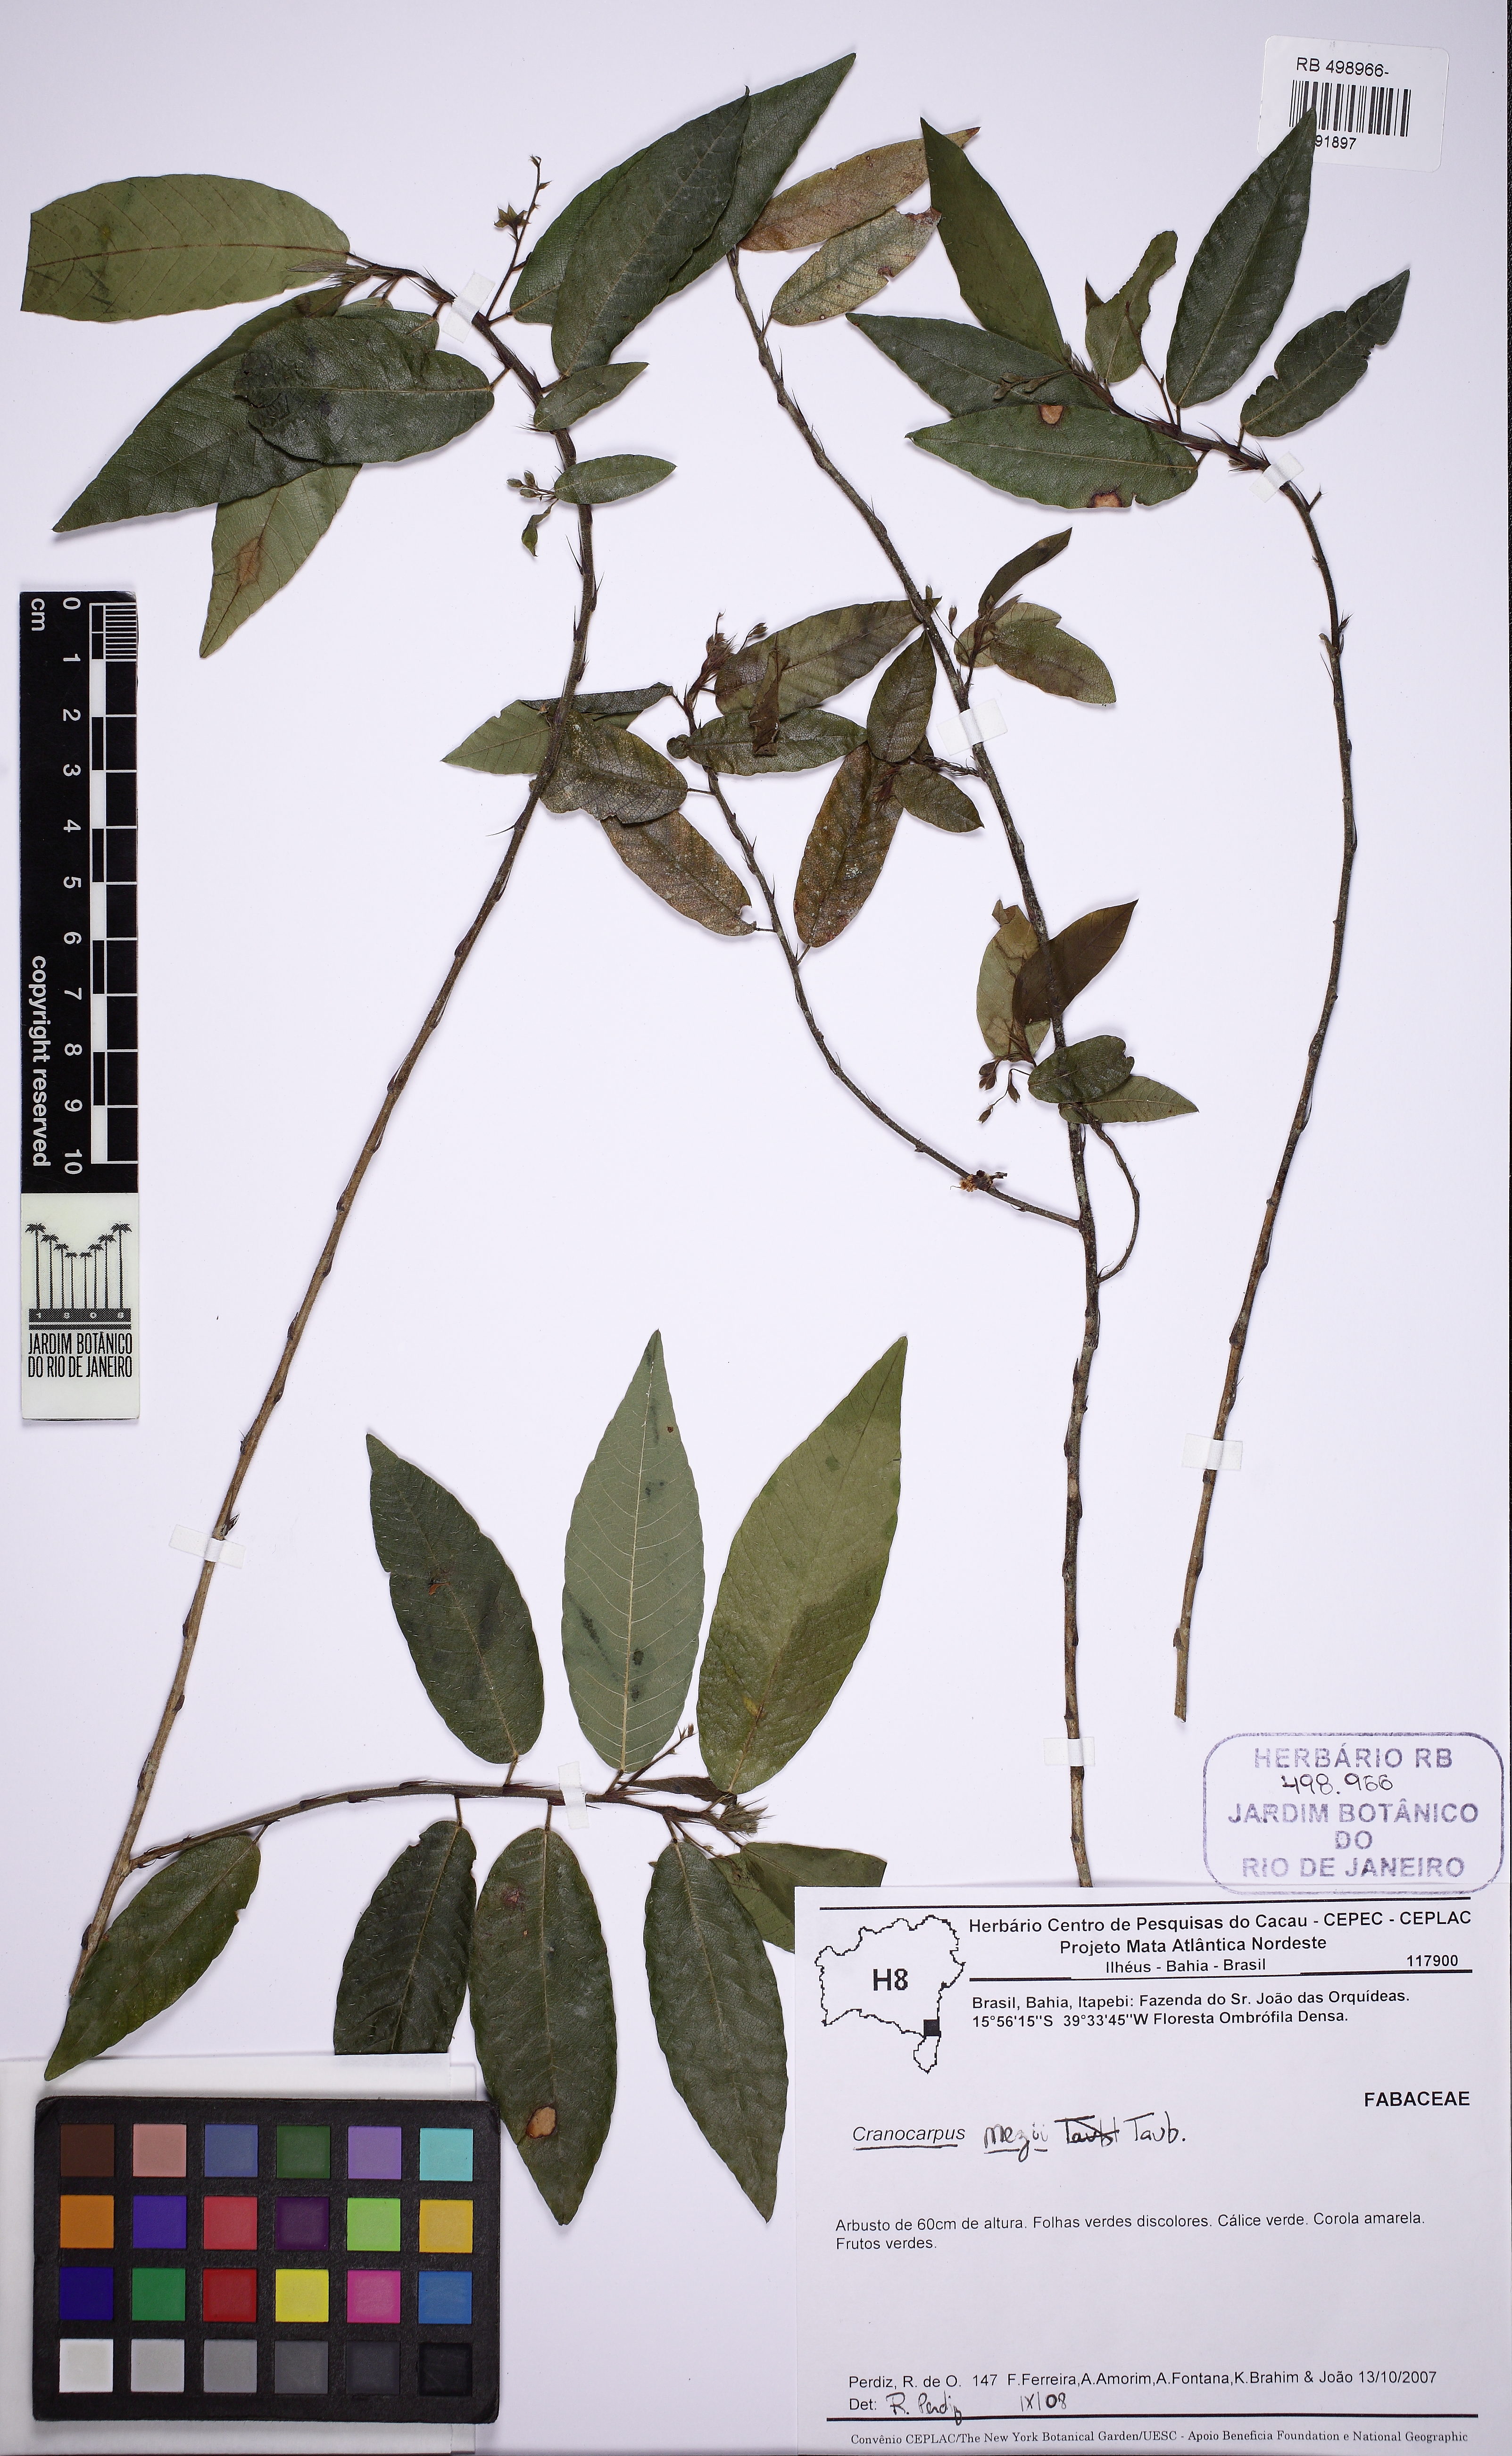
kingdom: Plantae
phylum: Tracheophyta
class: Magnoliopsida
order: Fabales
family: Fabaceae
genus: Cranocarpus
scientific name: Cranocarpus mezii
